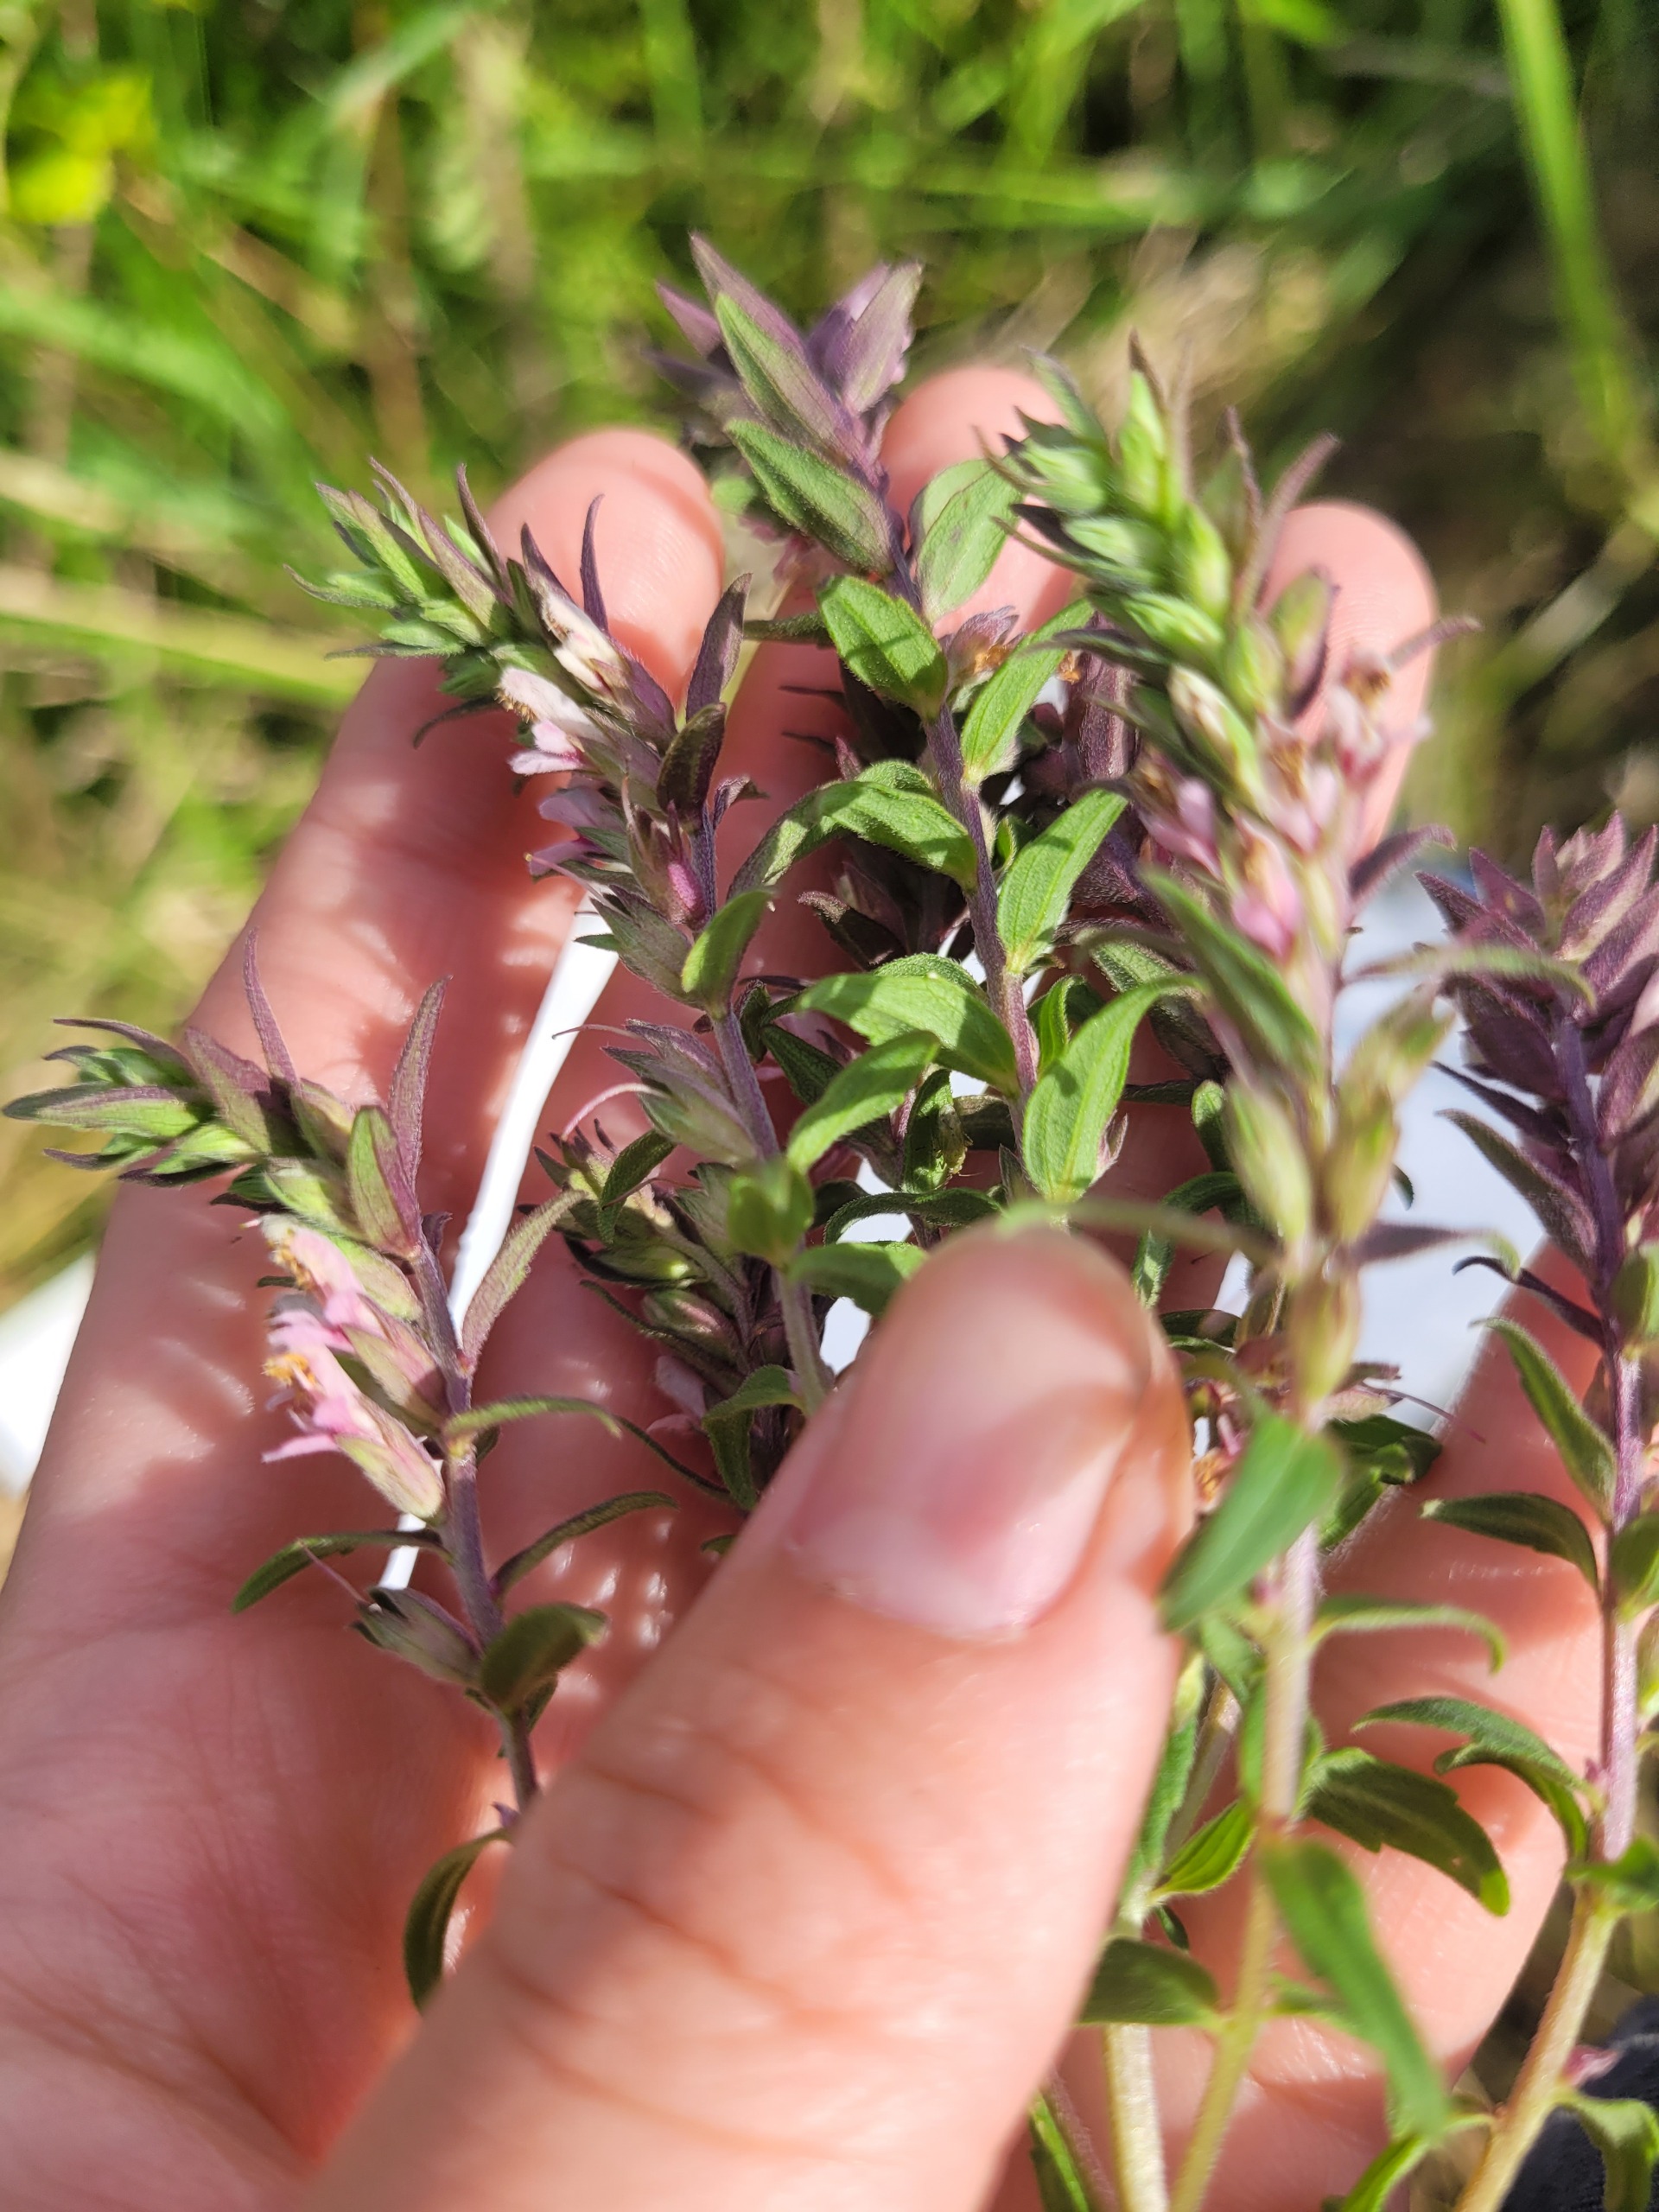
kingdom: Plantae
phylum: Tracheophyta
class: Magnoliopsida
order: Lamiales
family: Orobanchaceae
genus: Odontites
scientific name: Odontites
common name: Rødtopslægten
